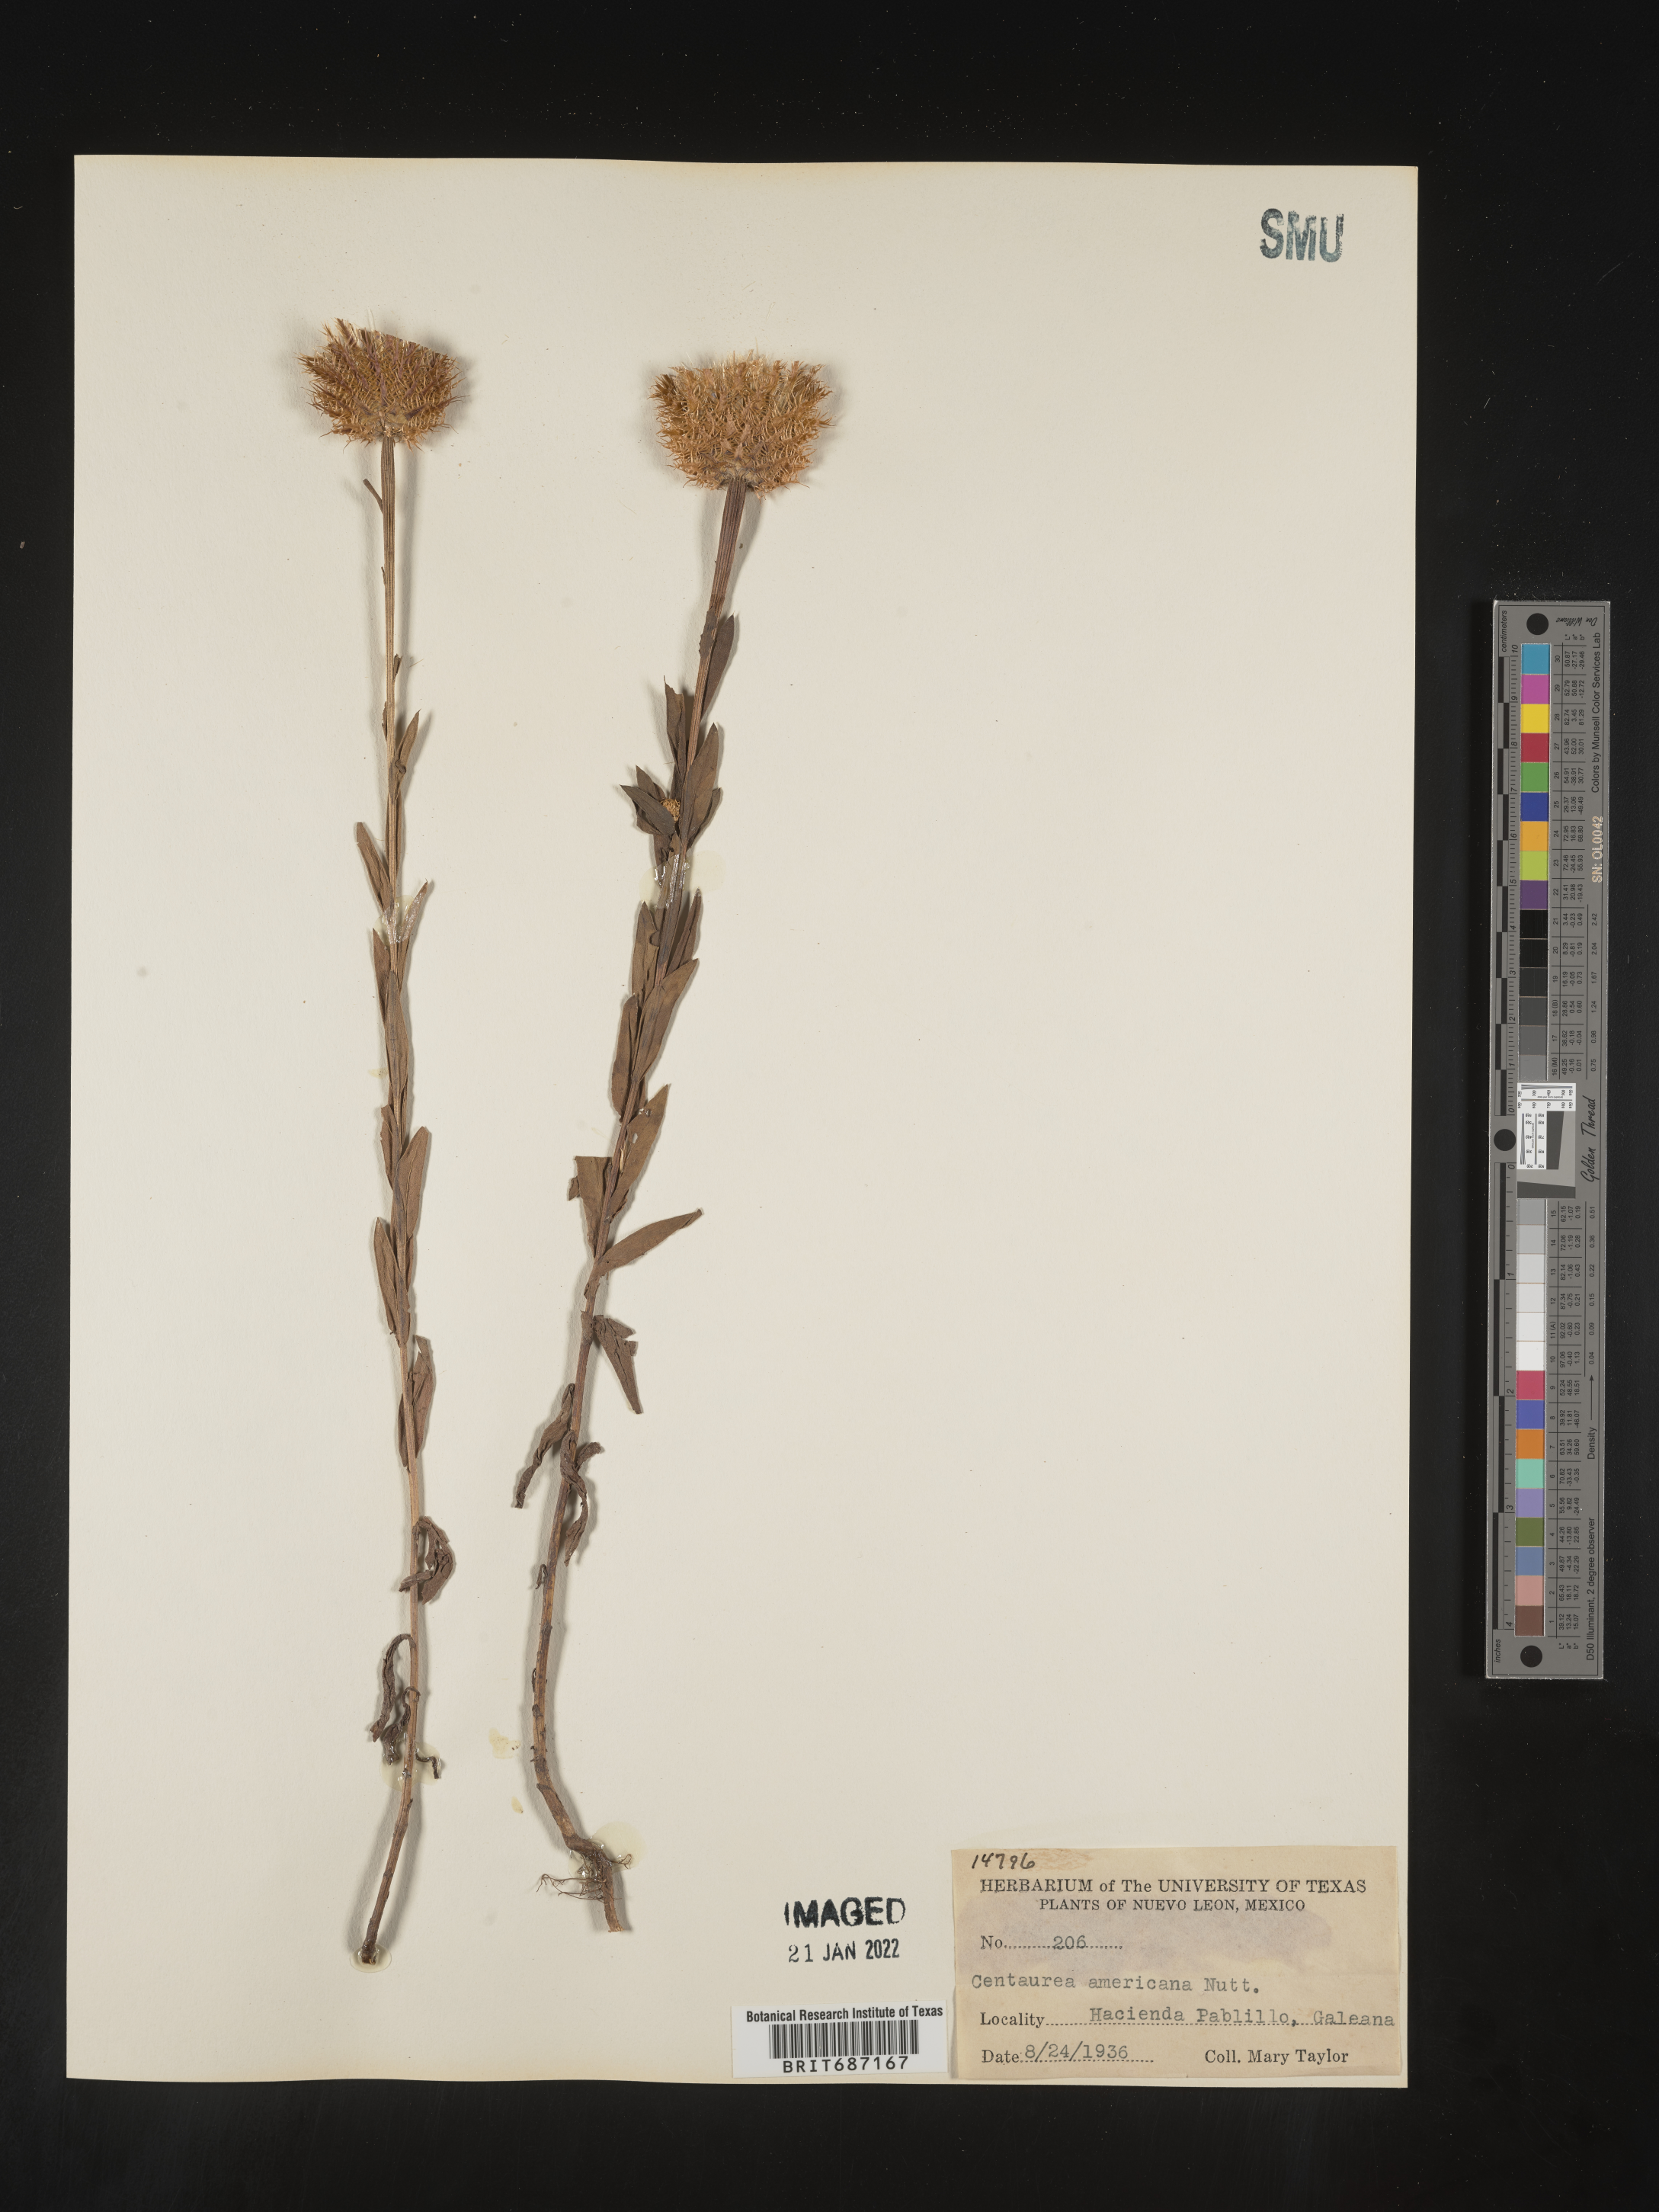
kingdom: Plantae
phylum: Tracheophyta
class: Magnoliopsida
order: Asterales
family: Asteraceae
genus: Centaurea
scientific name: Centaurea
